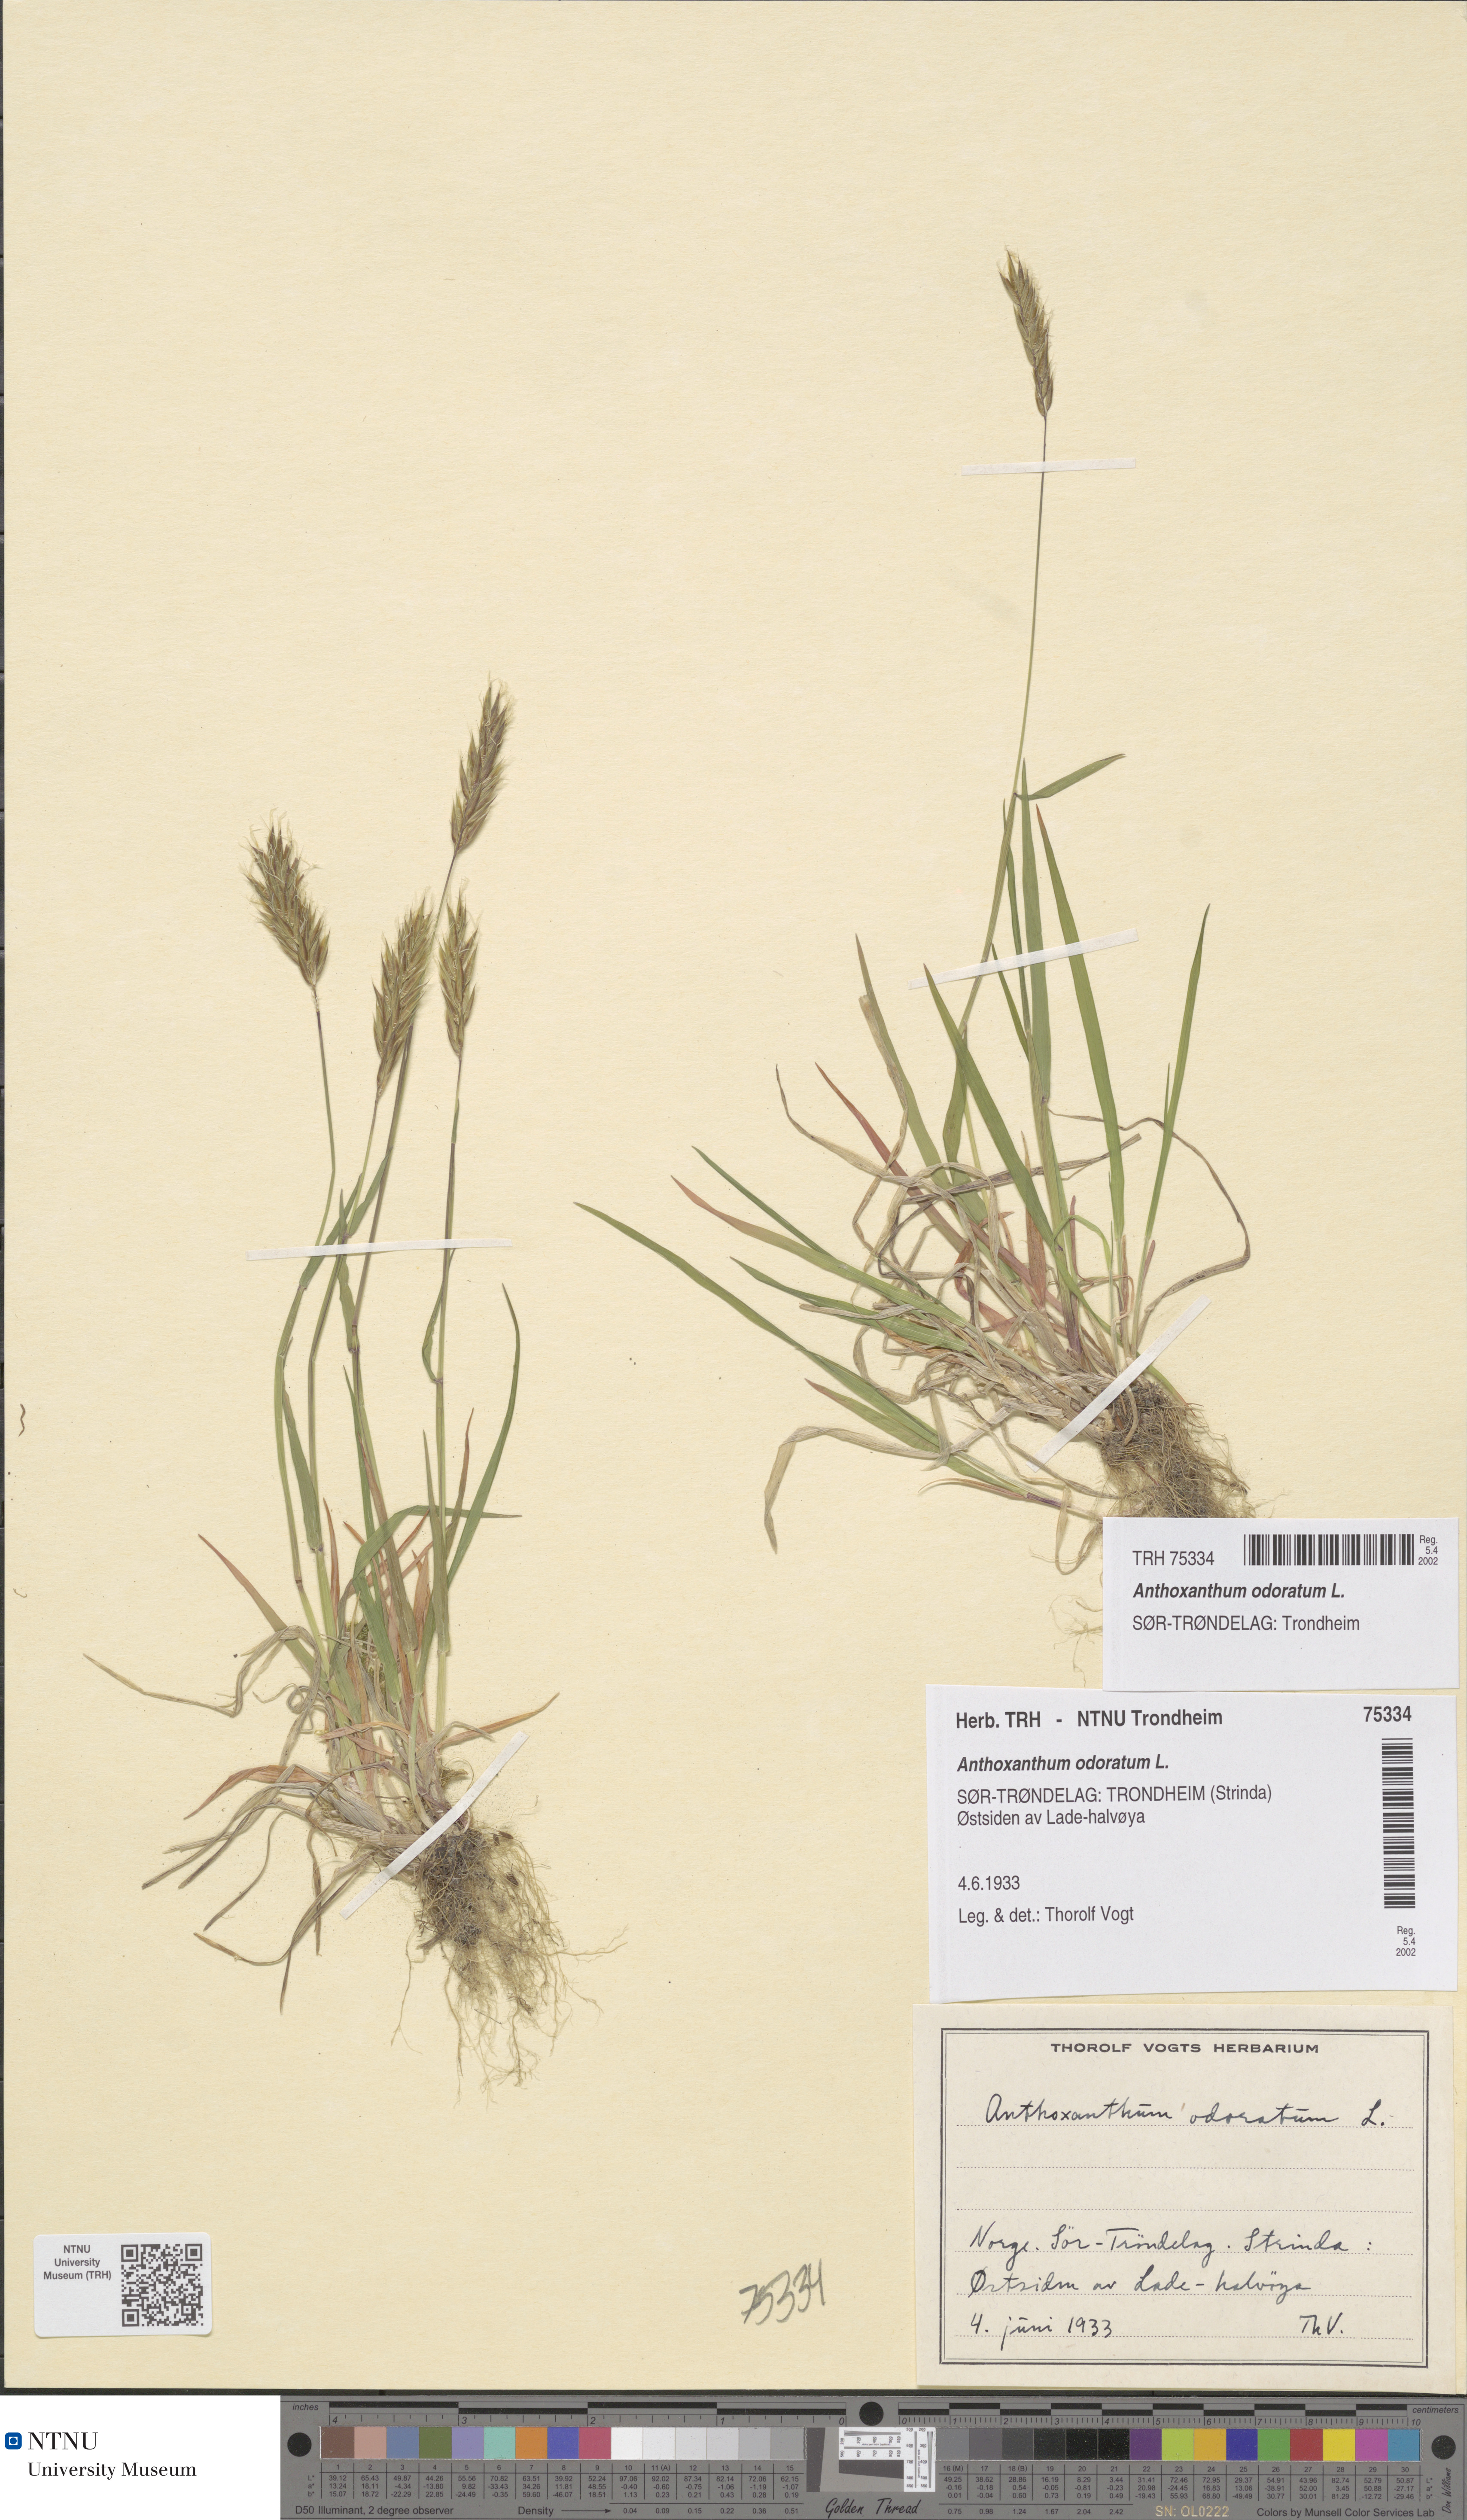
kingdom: Plantae
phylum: Tracheophyta
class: Liliopsida
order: Poales
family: Poaceae
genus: Anthoxanthum
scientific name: Anthoxanthum odoratum
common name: Sweet vernalgrass
